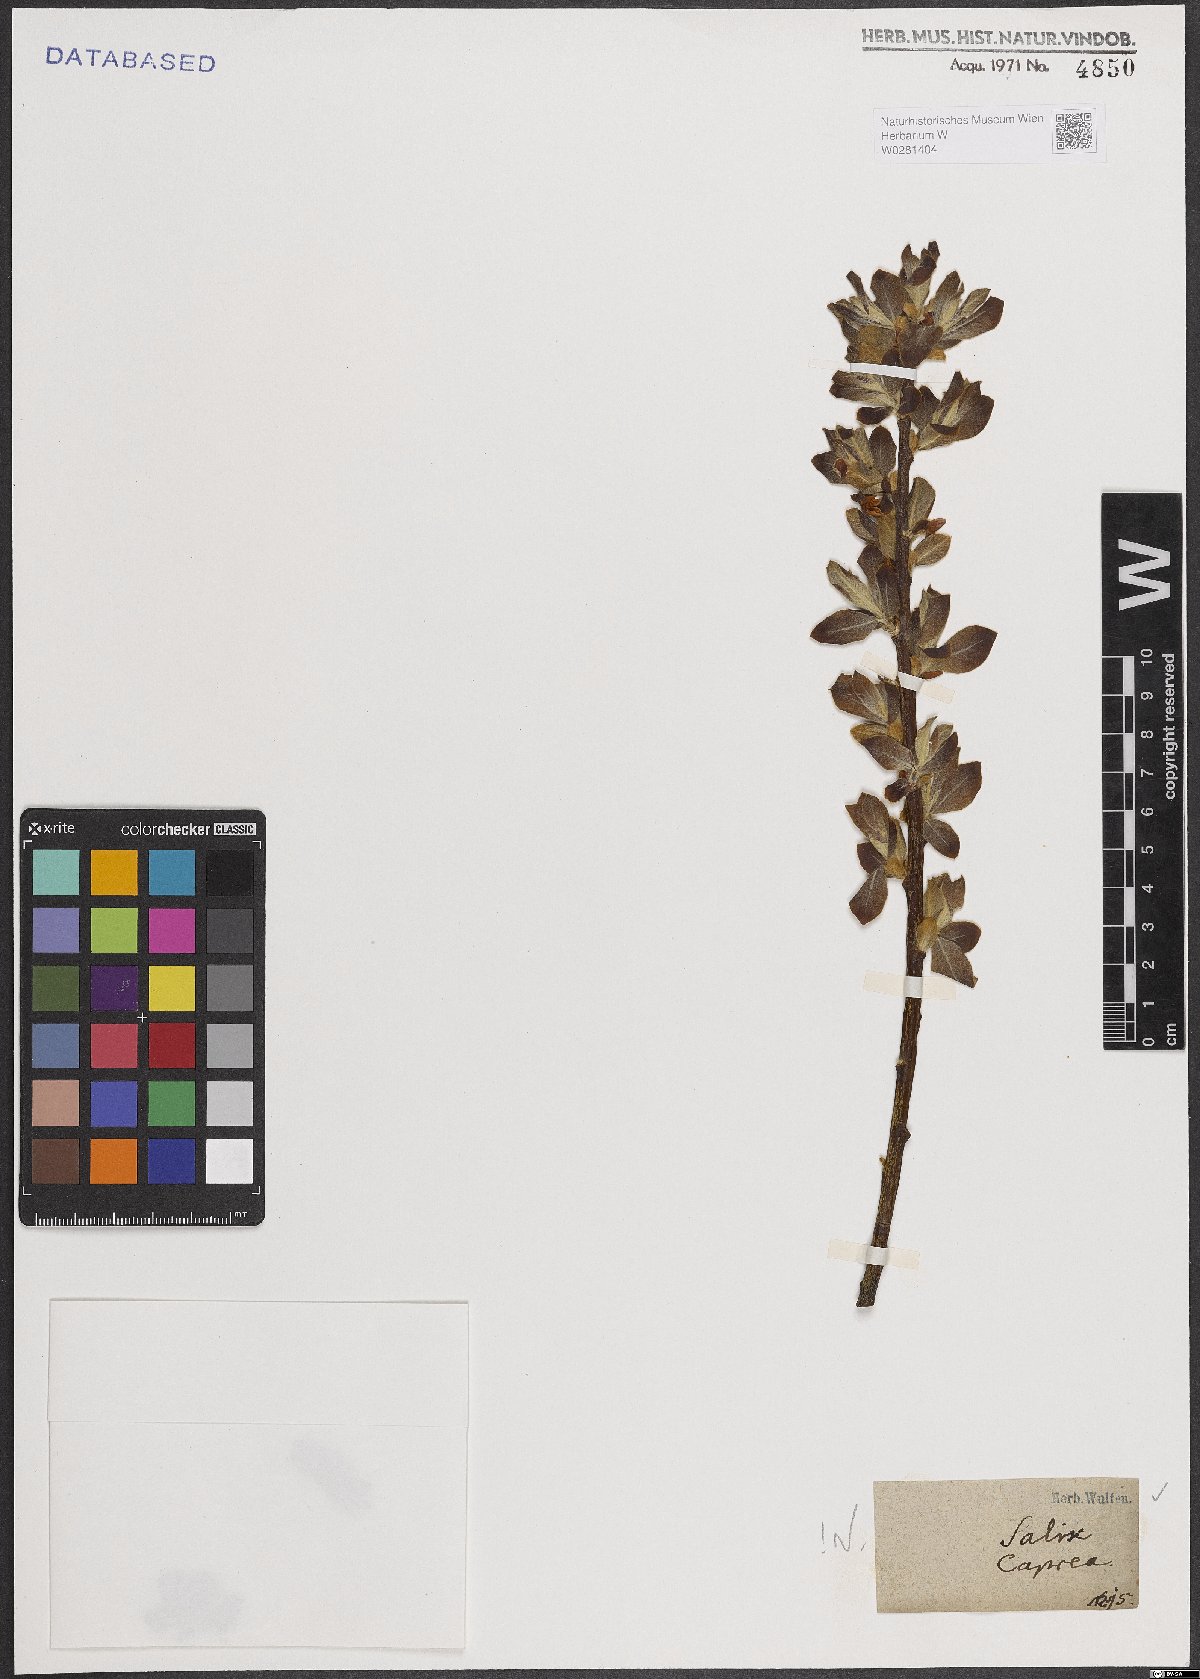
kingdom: Plantae
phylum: Tracheophyta
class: Magnoliopsida
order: Malpighiales
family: Salicaceae
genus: Salix
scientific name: Salix caprea
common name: Goat willow
